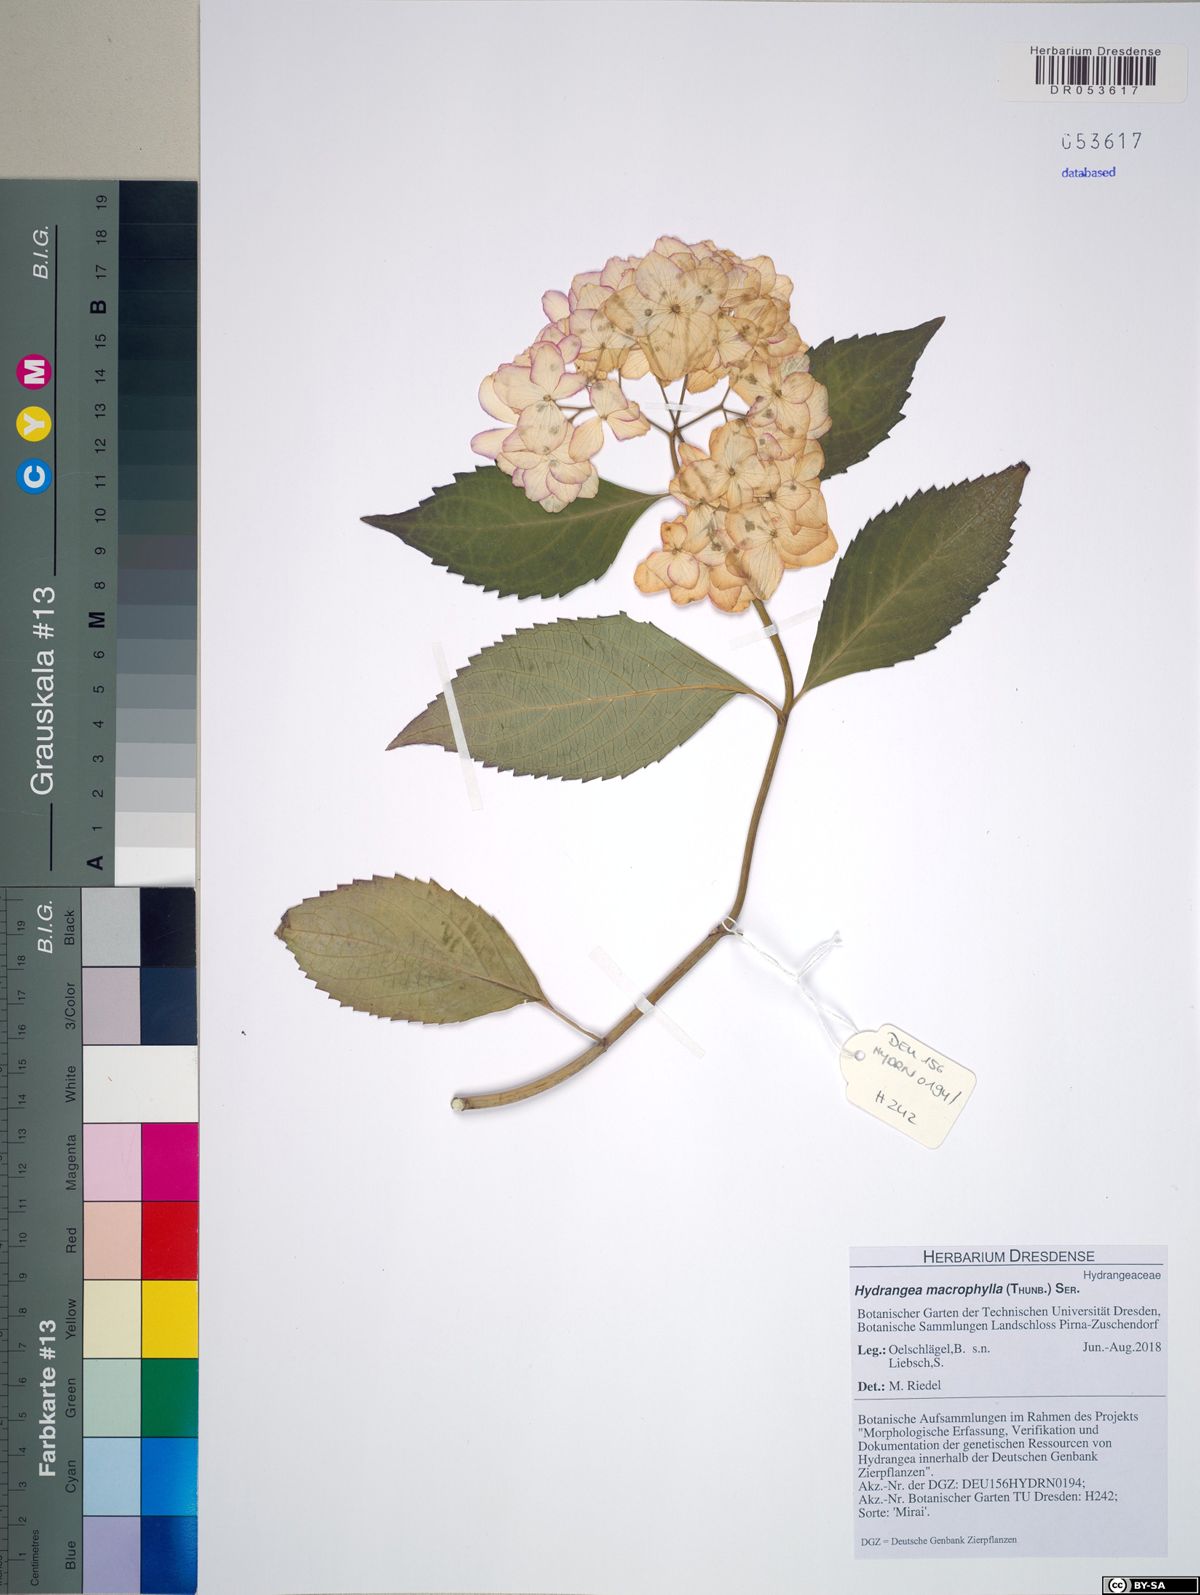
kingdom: Plantae
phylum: Tracheophyta
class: Magnoliopsida
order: Cornales
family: Hydrangeaceae
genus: Hydrangea
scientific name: Hydrangea macrophylla
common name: Hydrangea
